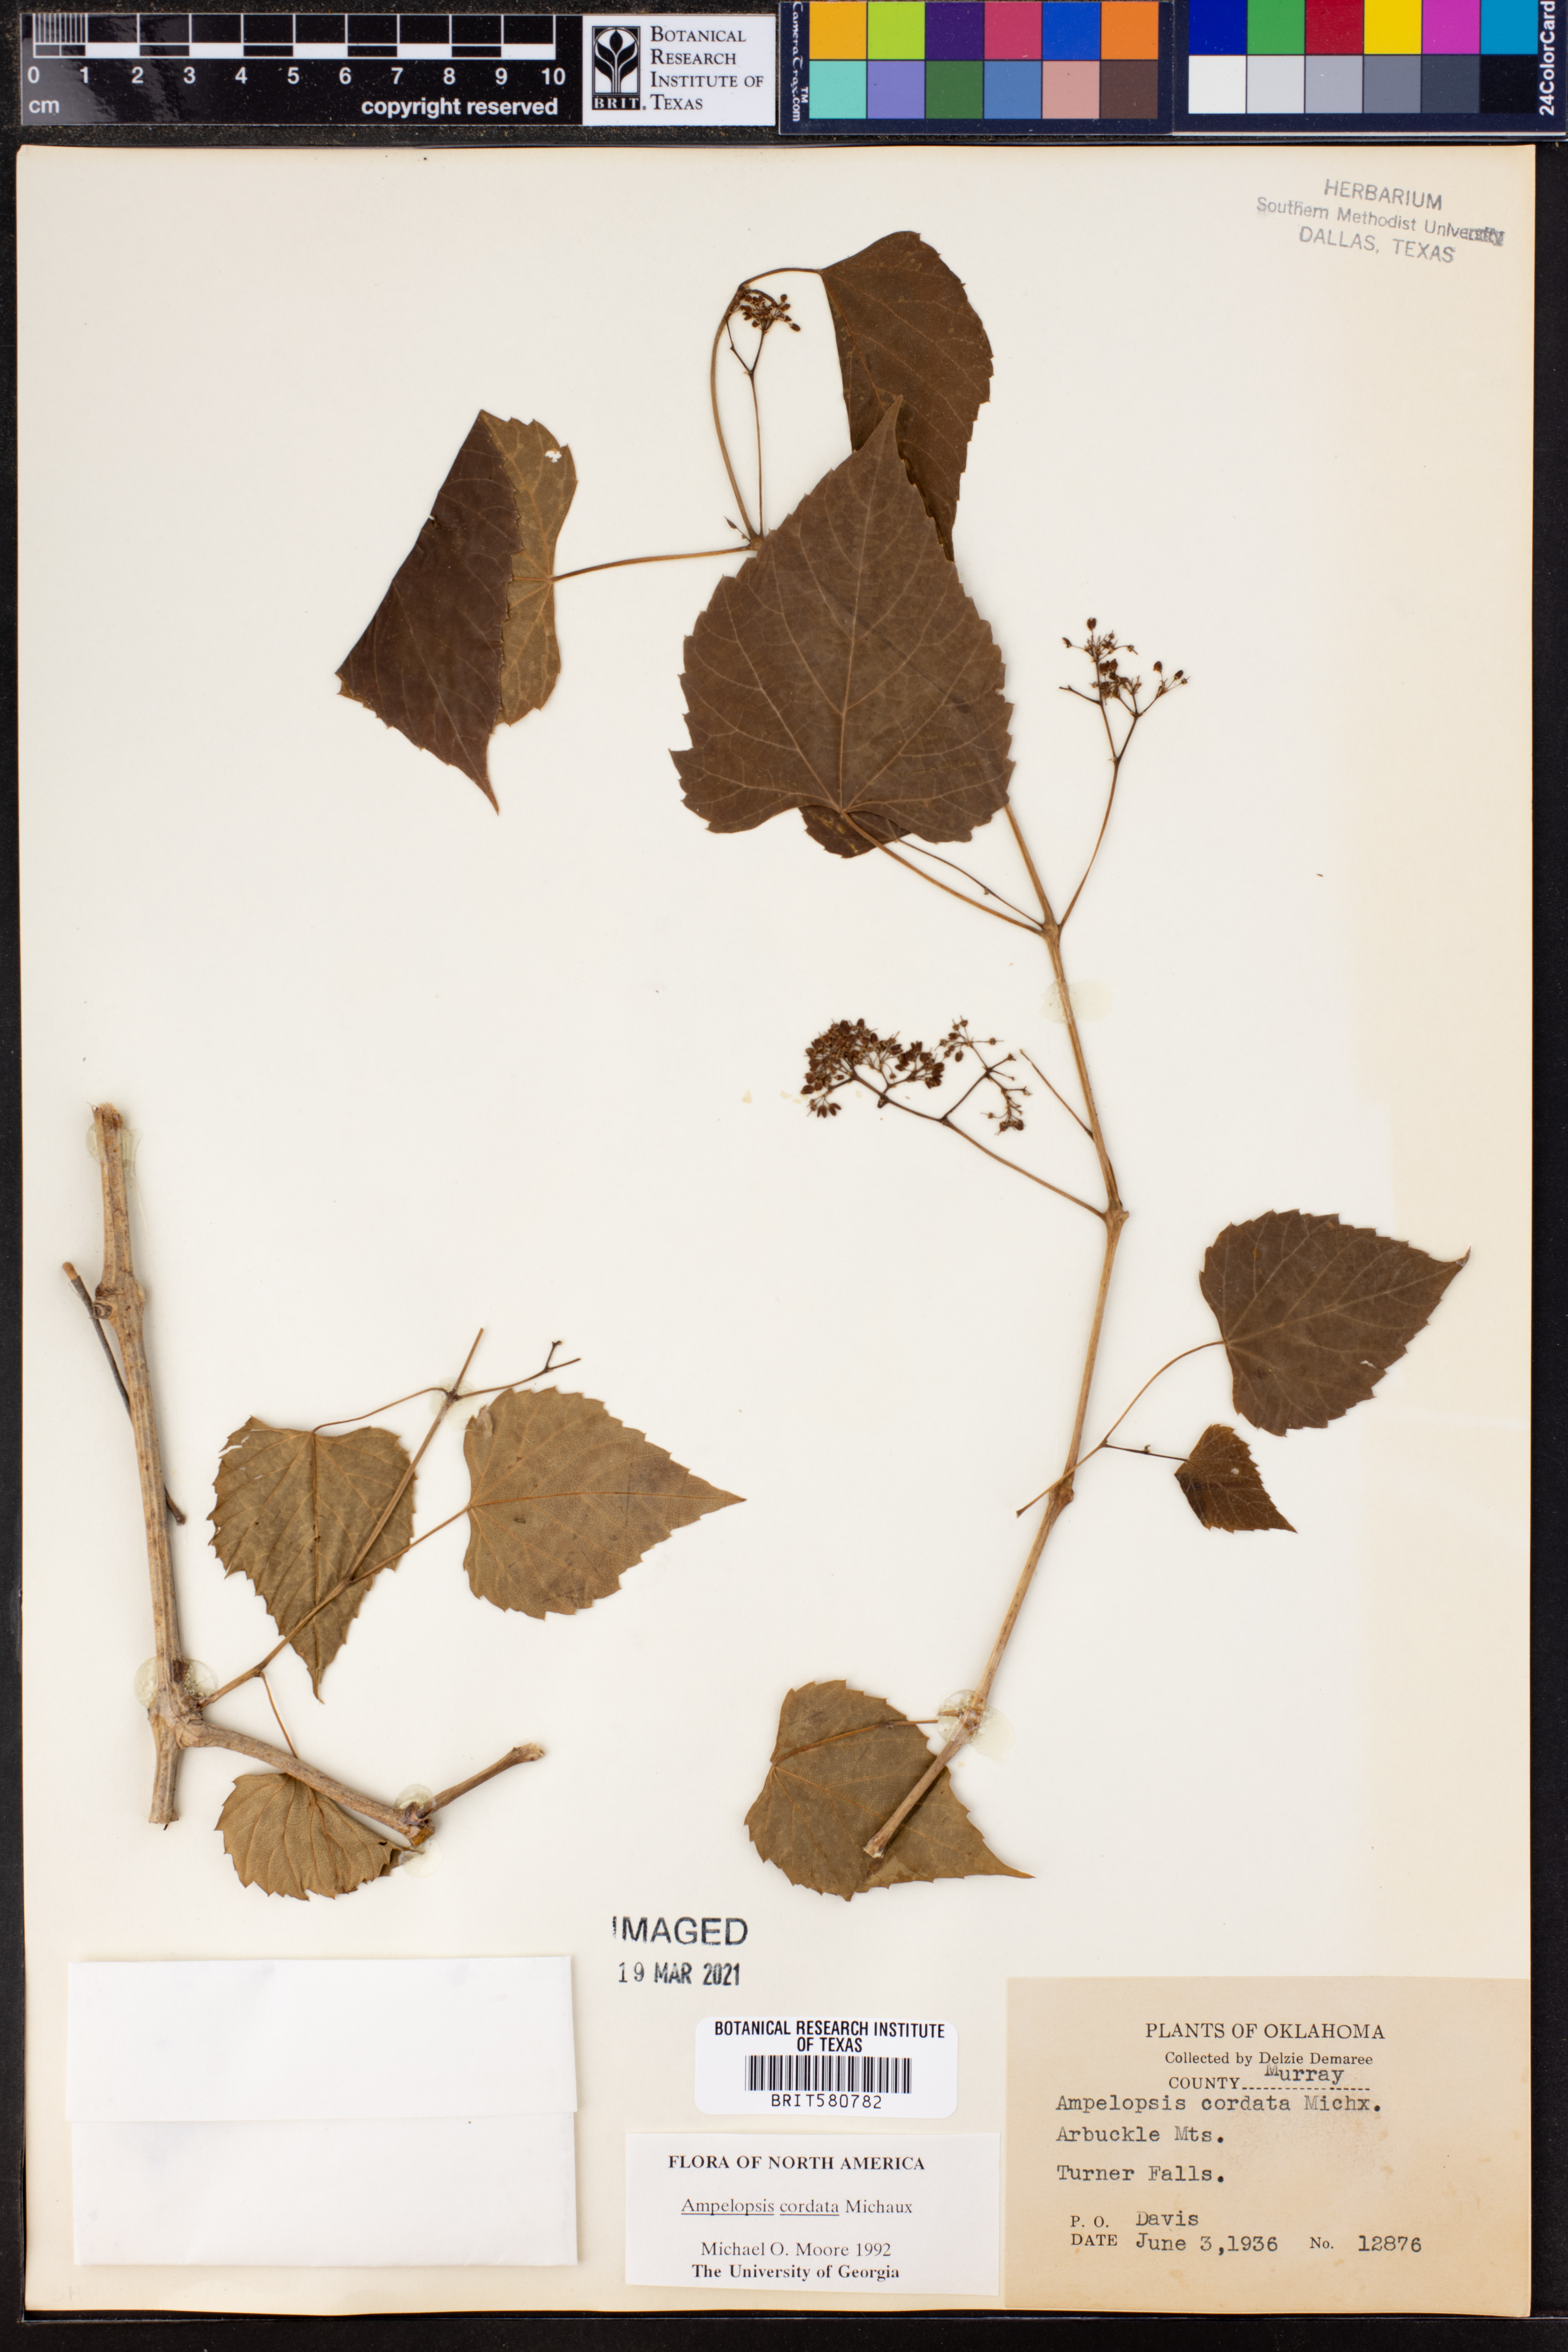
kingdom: Plantae
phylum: Tracheophyta
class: Magnoliopsida
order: Vitales
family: Vitaceae
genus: Ampelopsis
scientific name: Ampelopsis cordata
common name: Heart-leaf ampelopsis
